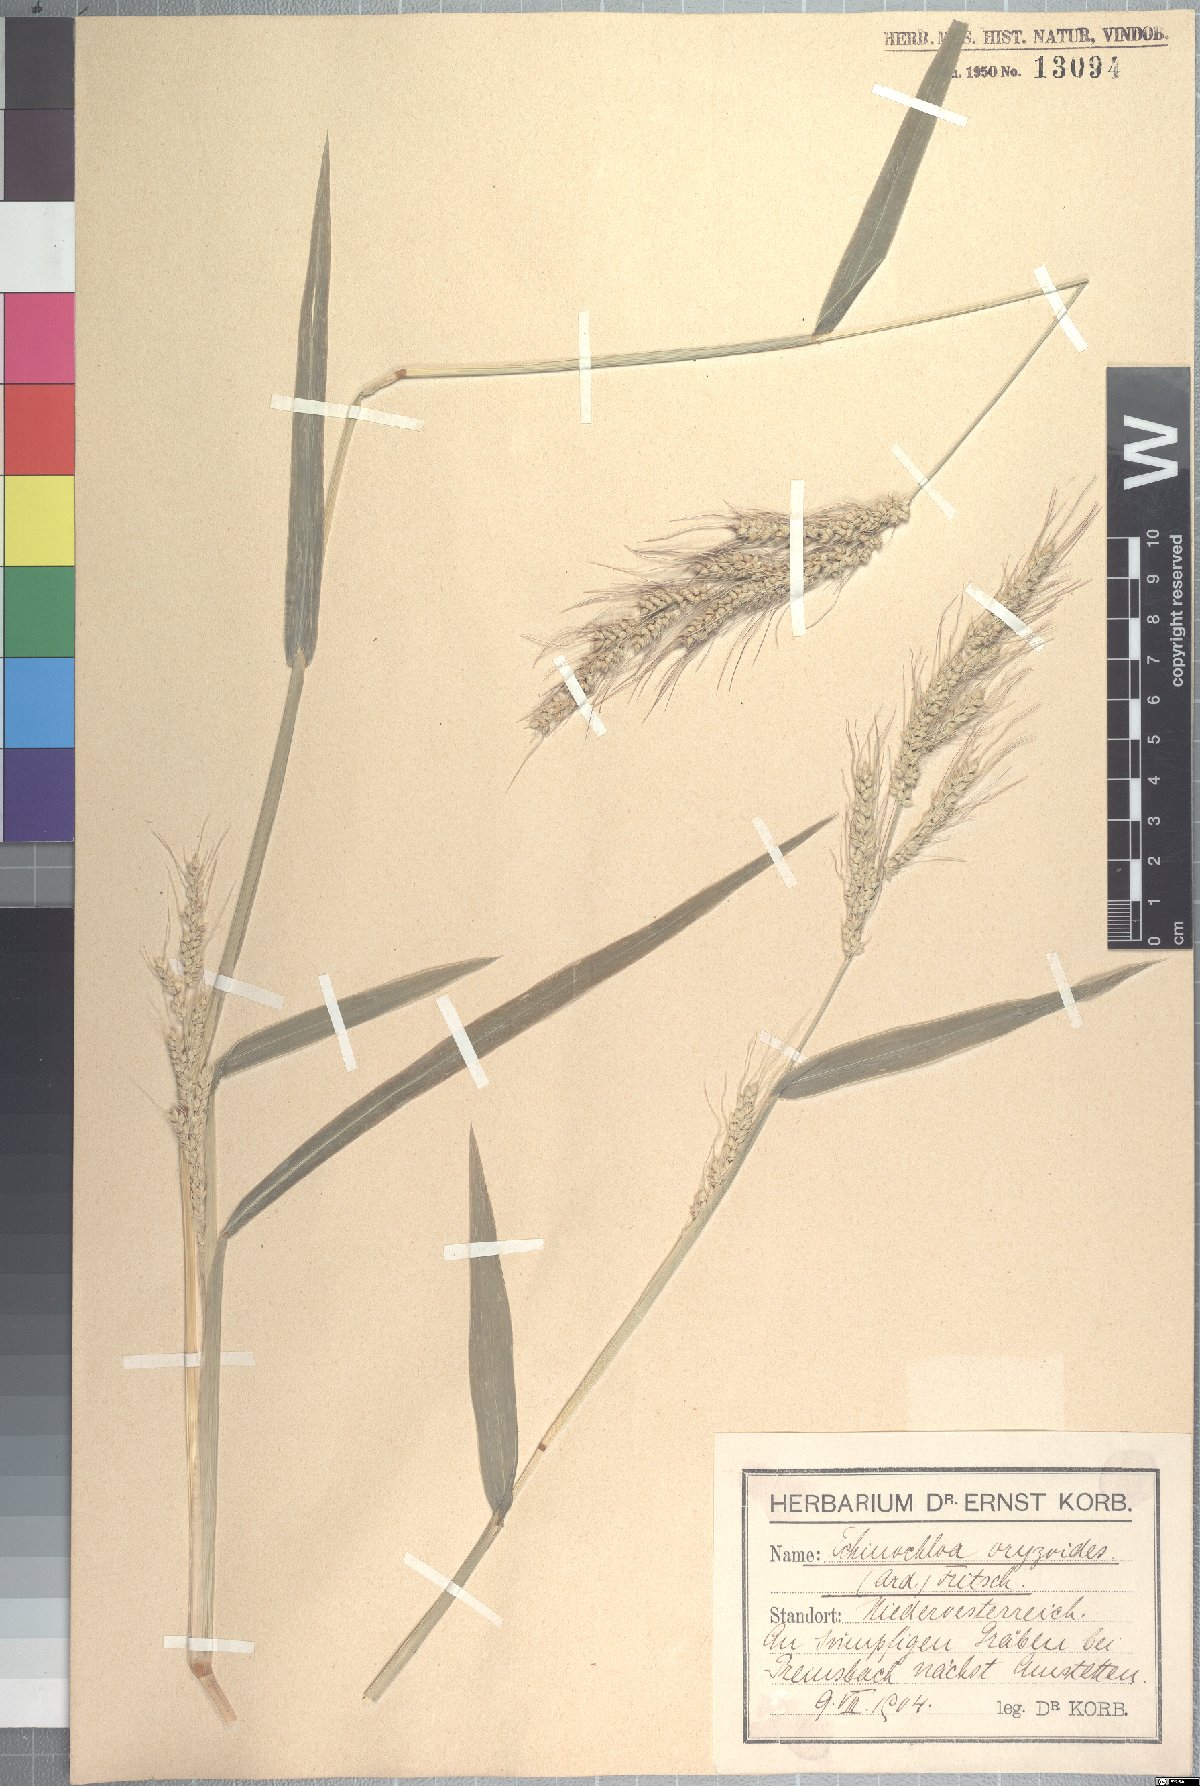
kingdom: Plantae
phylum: Tracheophyta
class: Liliopsida
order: Poales
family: Poaceae
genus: Echinochloa
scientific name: Echinochloa oryzoides
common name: Early water grass
